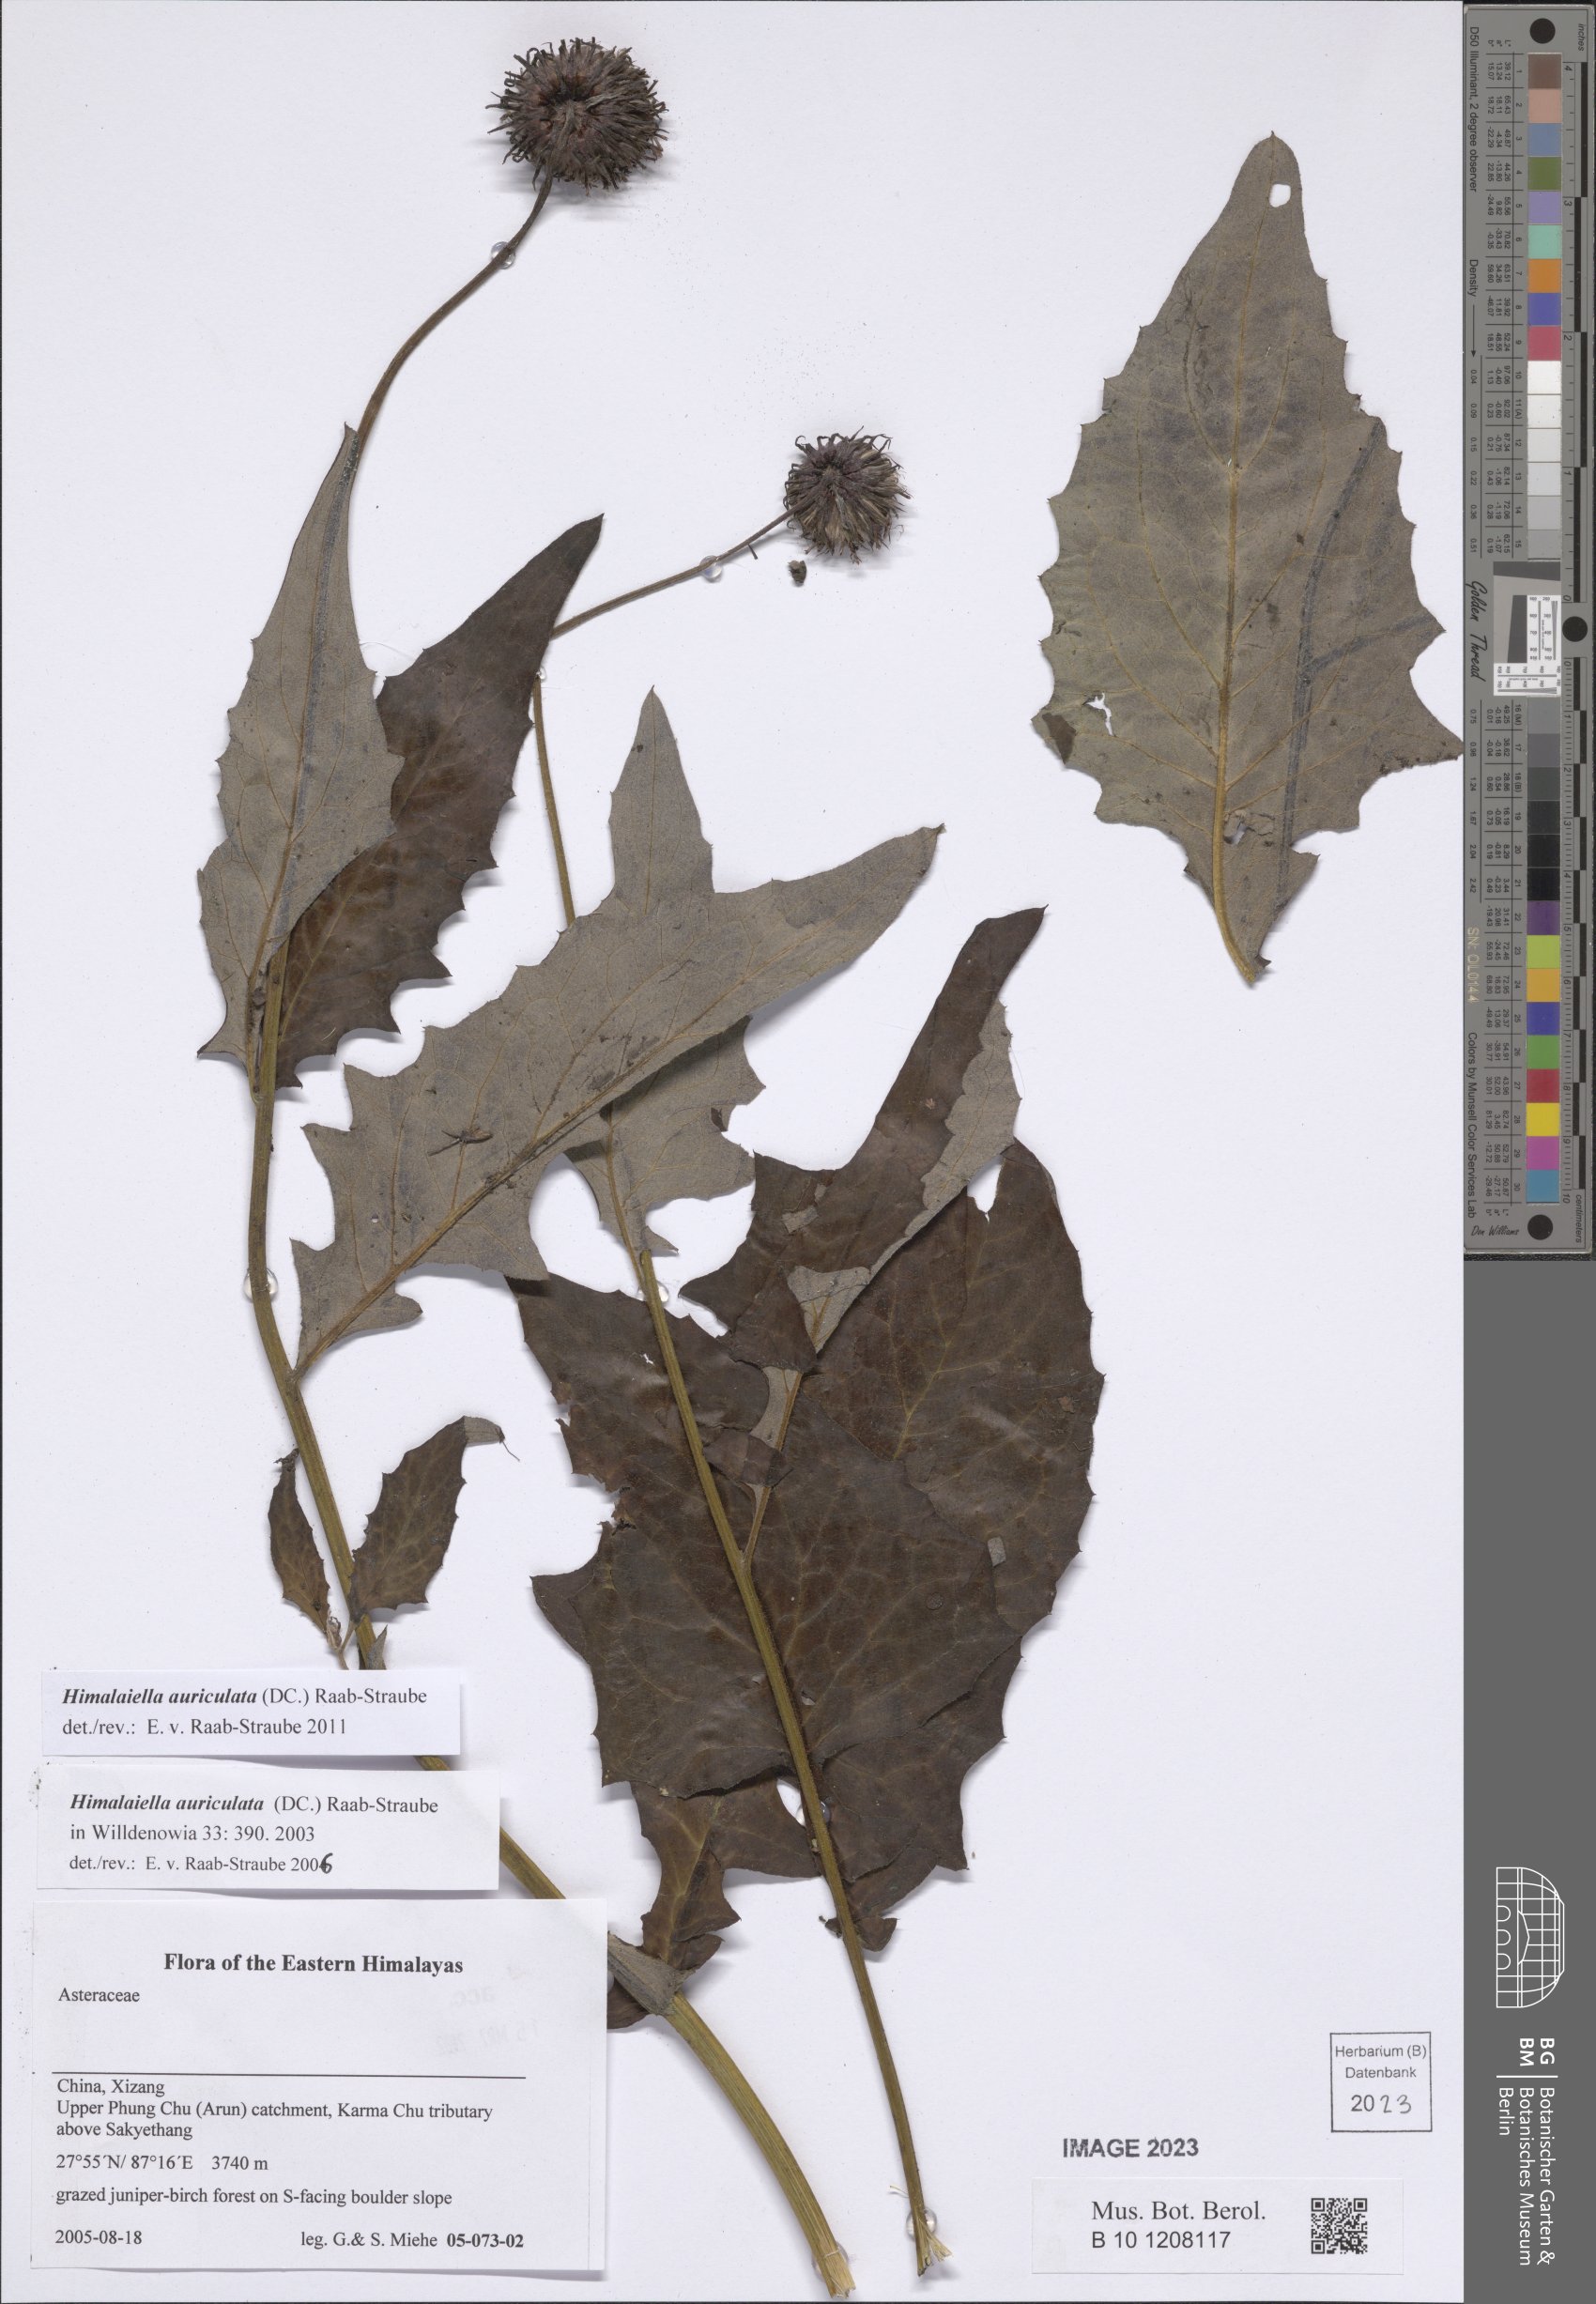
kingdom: Plantae
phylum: Tracheophyta
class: Magnoliopsida
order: Asterales
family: Asteraceae
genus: Jurinea
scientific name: Jurinea auriculata
